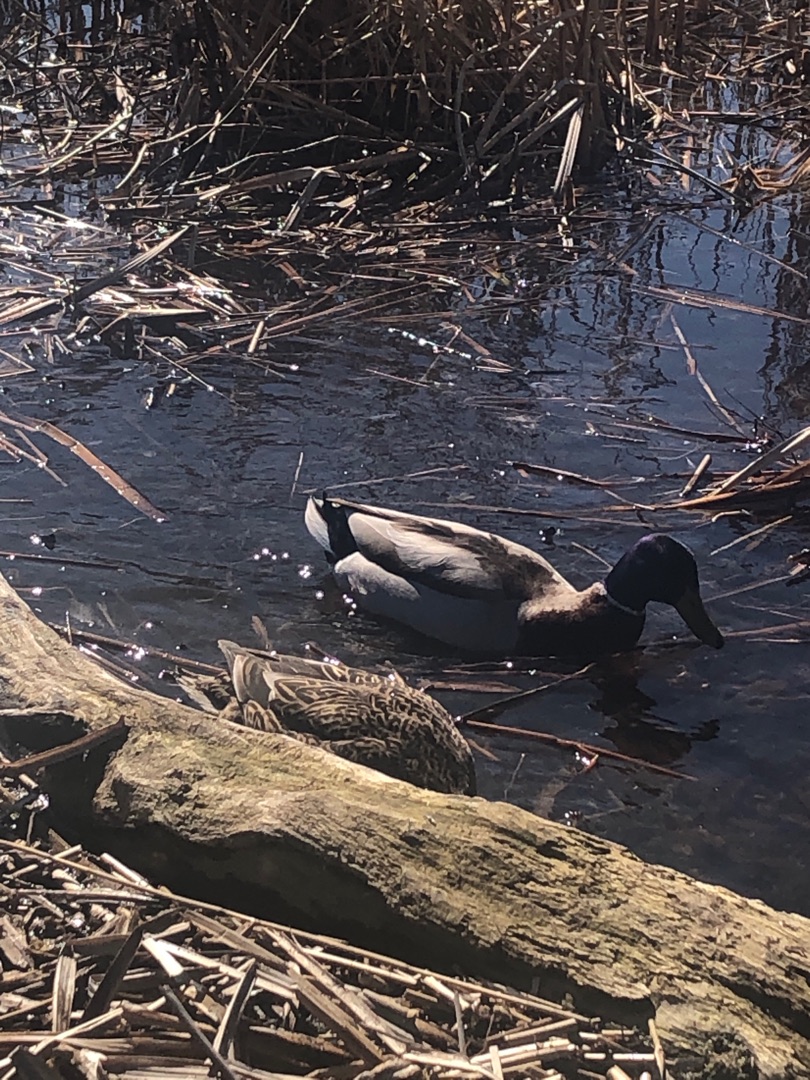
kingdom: Animalia
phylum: Chordata
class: Aves
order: Anseriformes
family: Anatidae
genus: Anas
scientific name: Anas platyrhynchos
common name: Gråand
